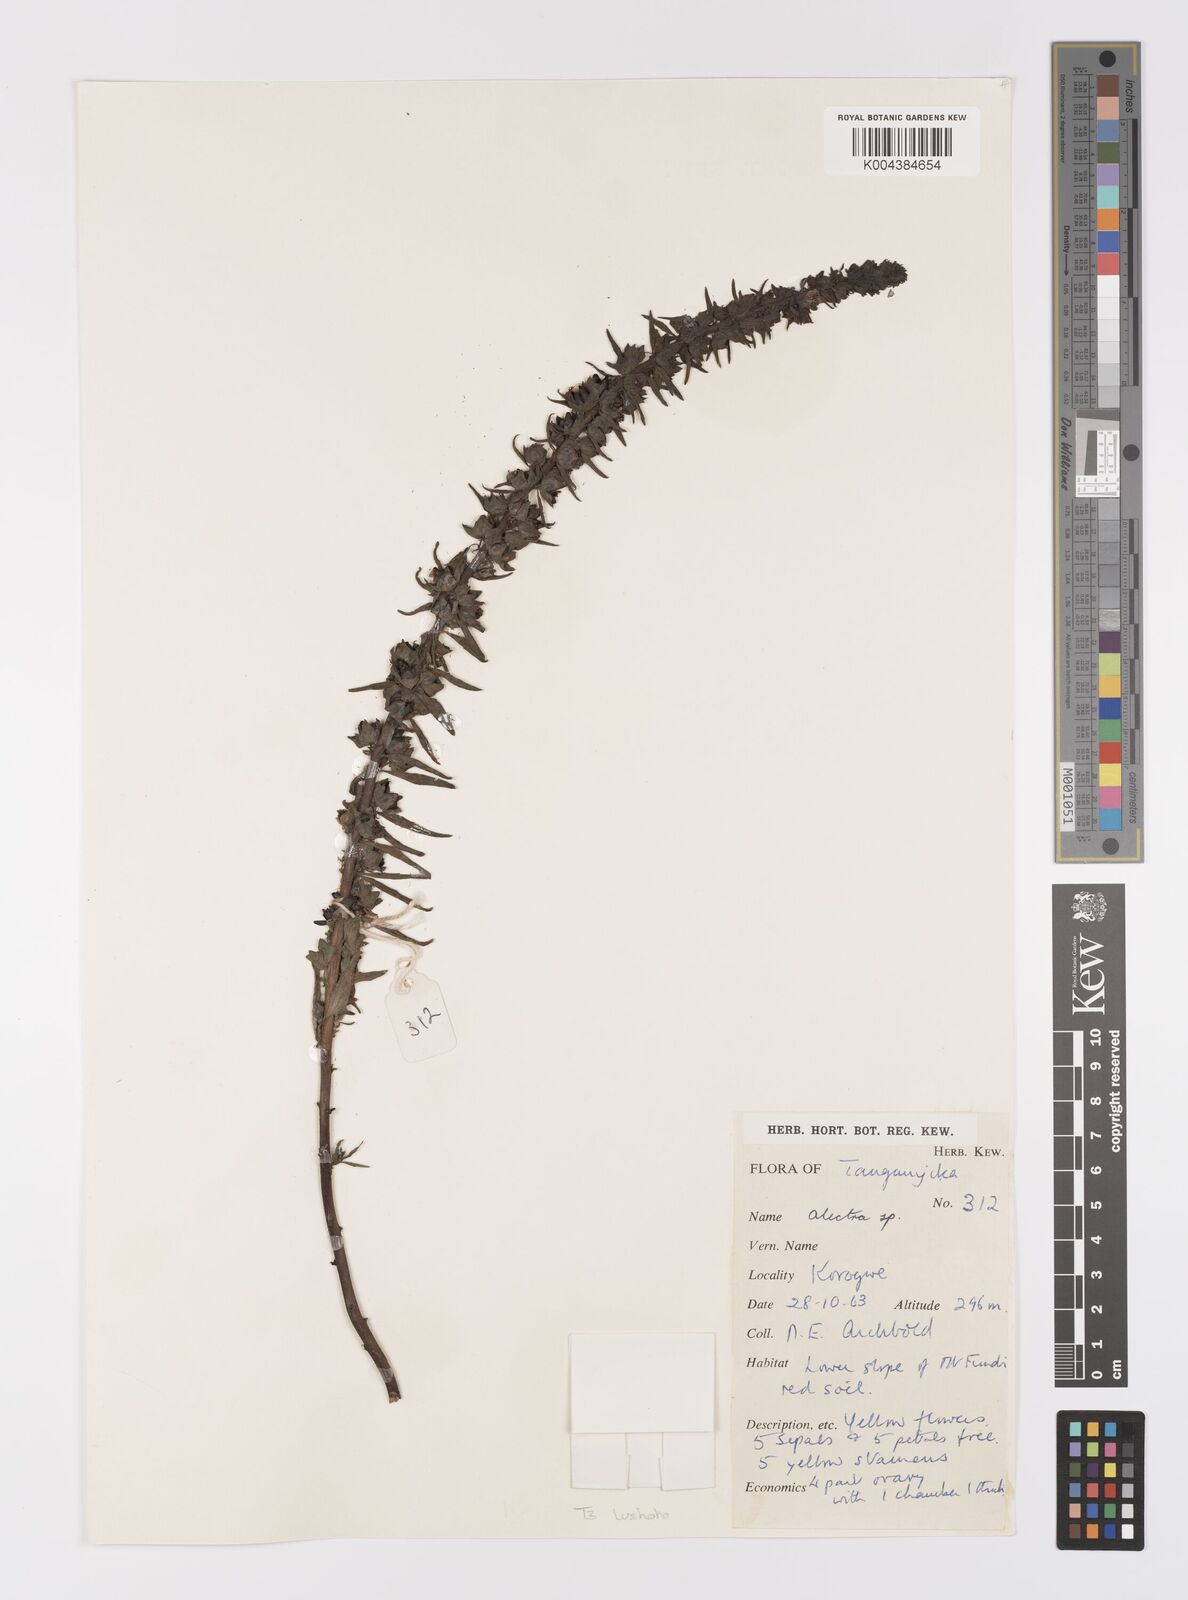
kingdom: Plantae
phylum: Tracheophyta
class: Magnoliopsida
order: Lamiales
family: Orobanchaceae
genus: Alectra
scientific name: Alectra
